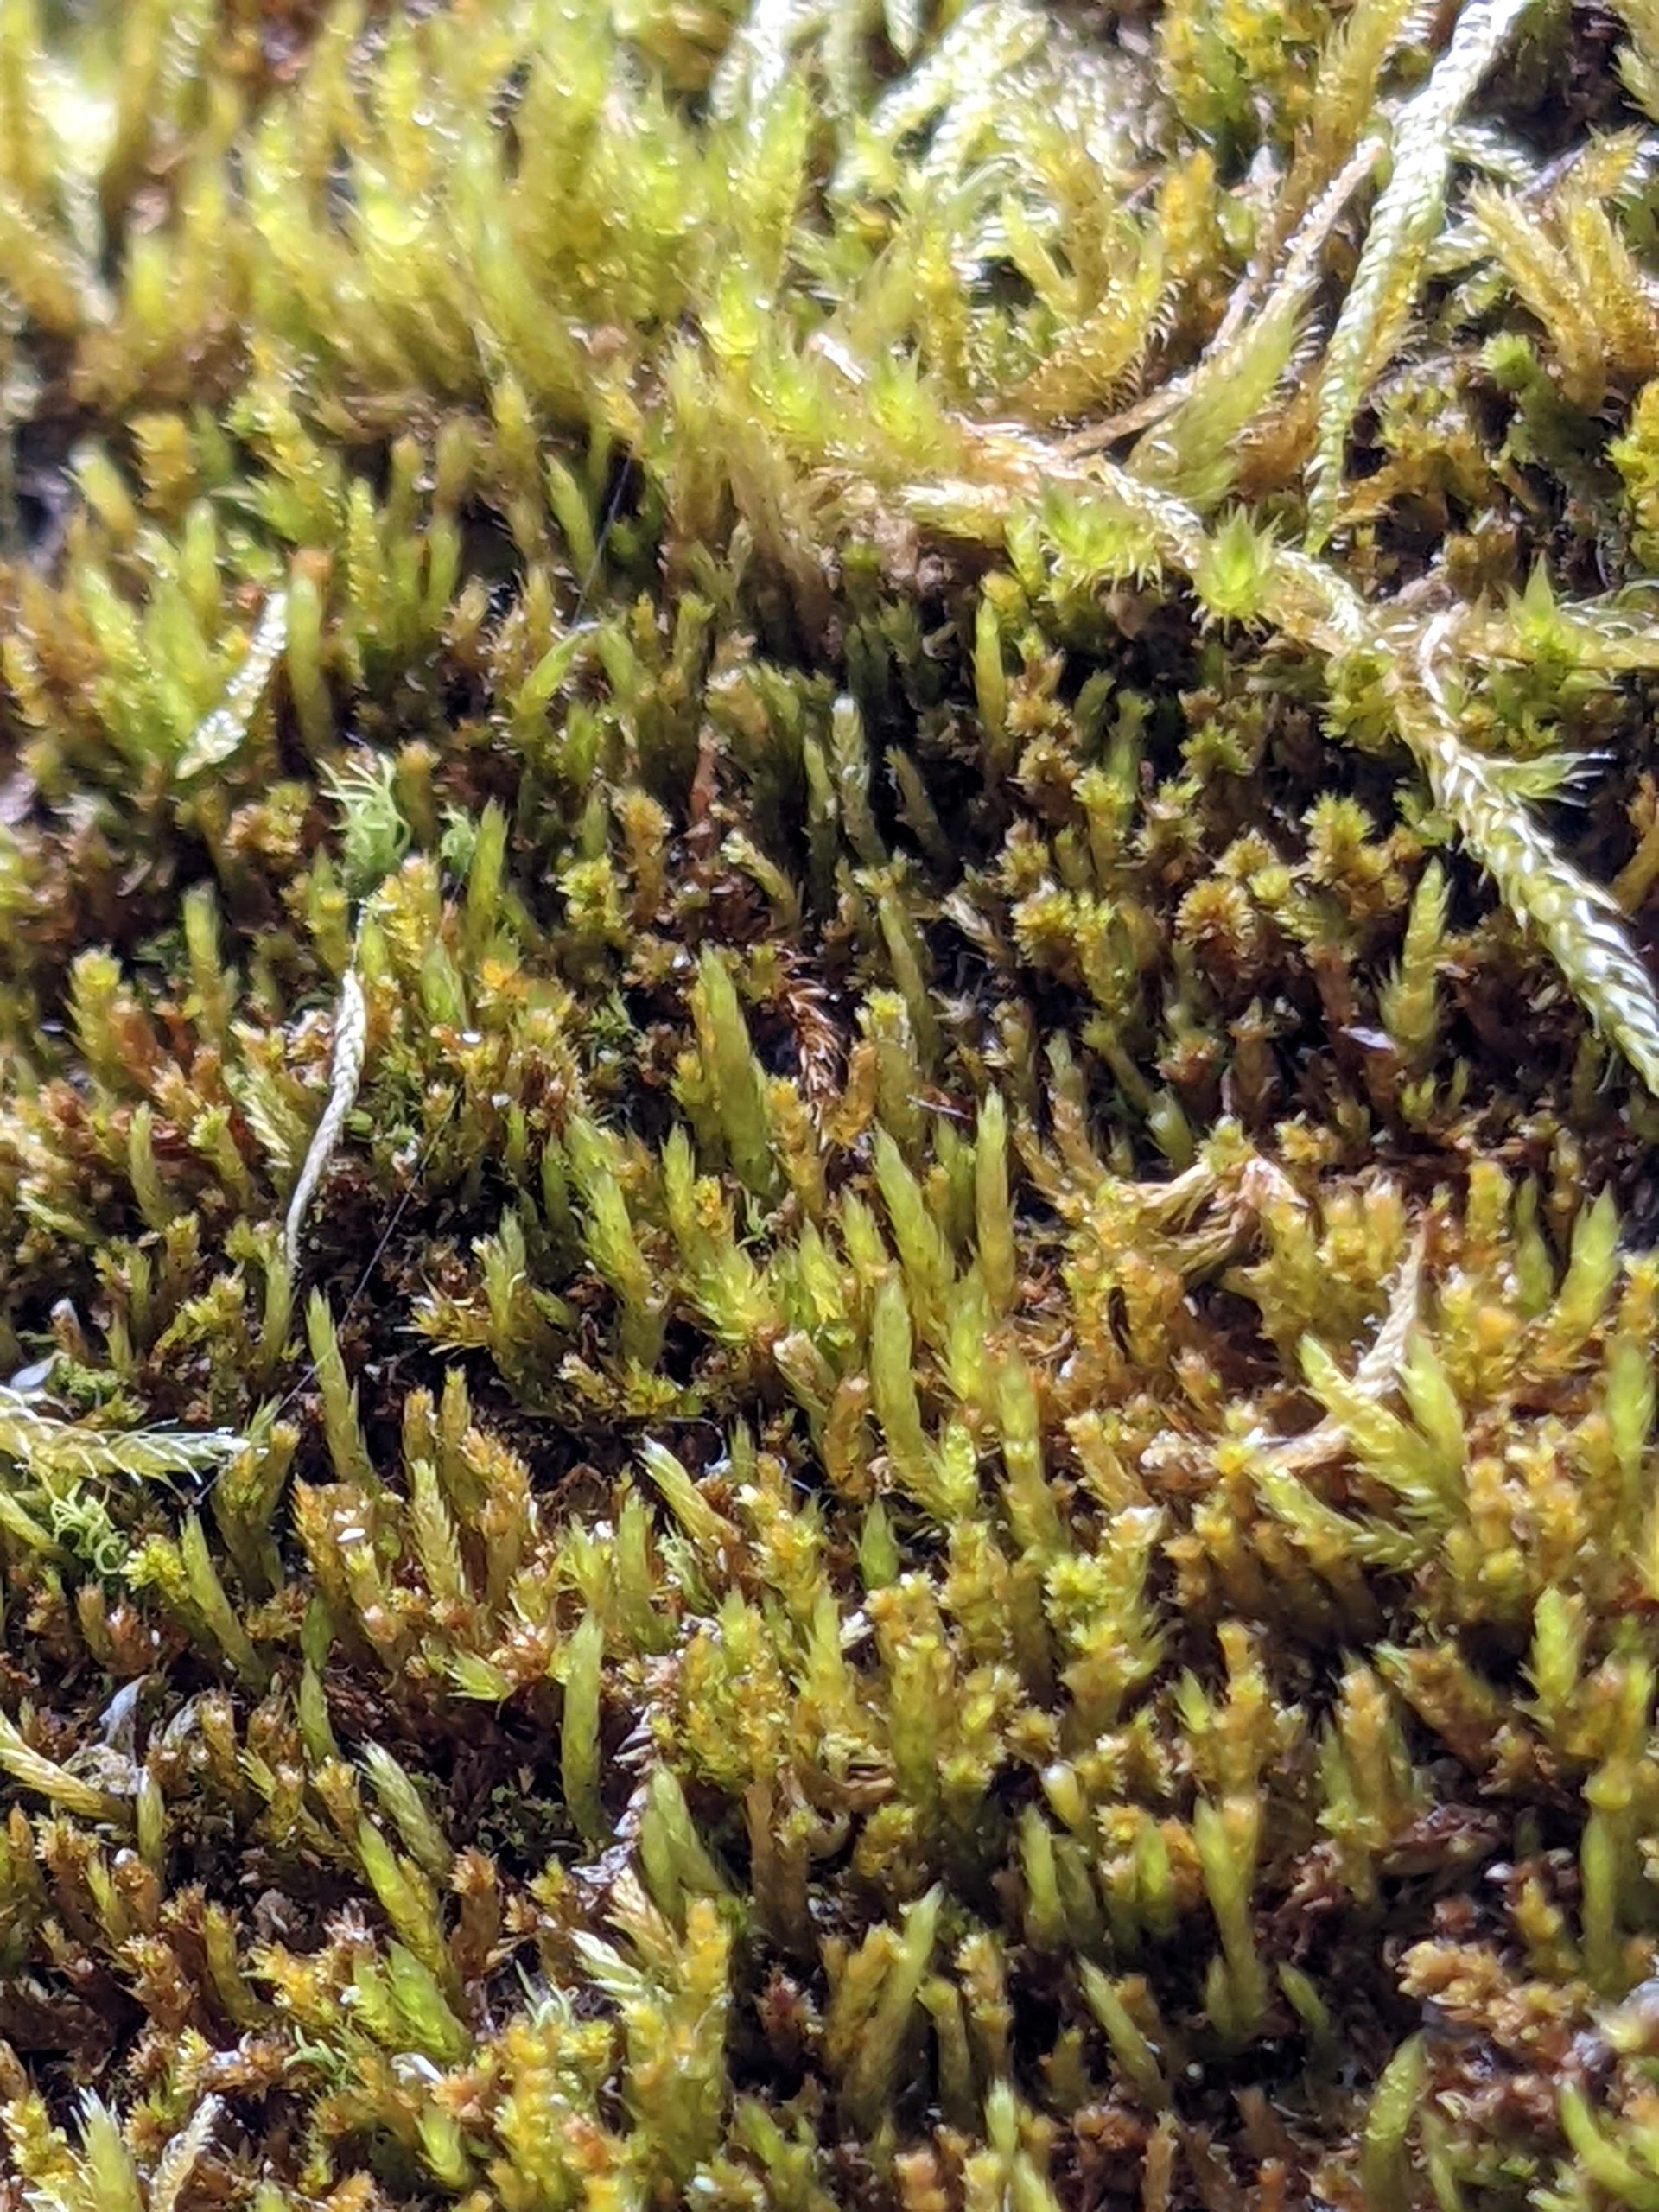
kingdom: Plantae
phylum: Bryophyta
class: Bryopsida
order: Hypnales
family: Pylaisiadelphaceae
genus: Platygyrium
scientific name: Platygyrium repens
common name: Mørk yngleknop
